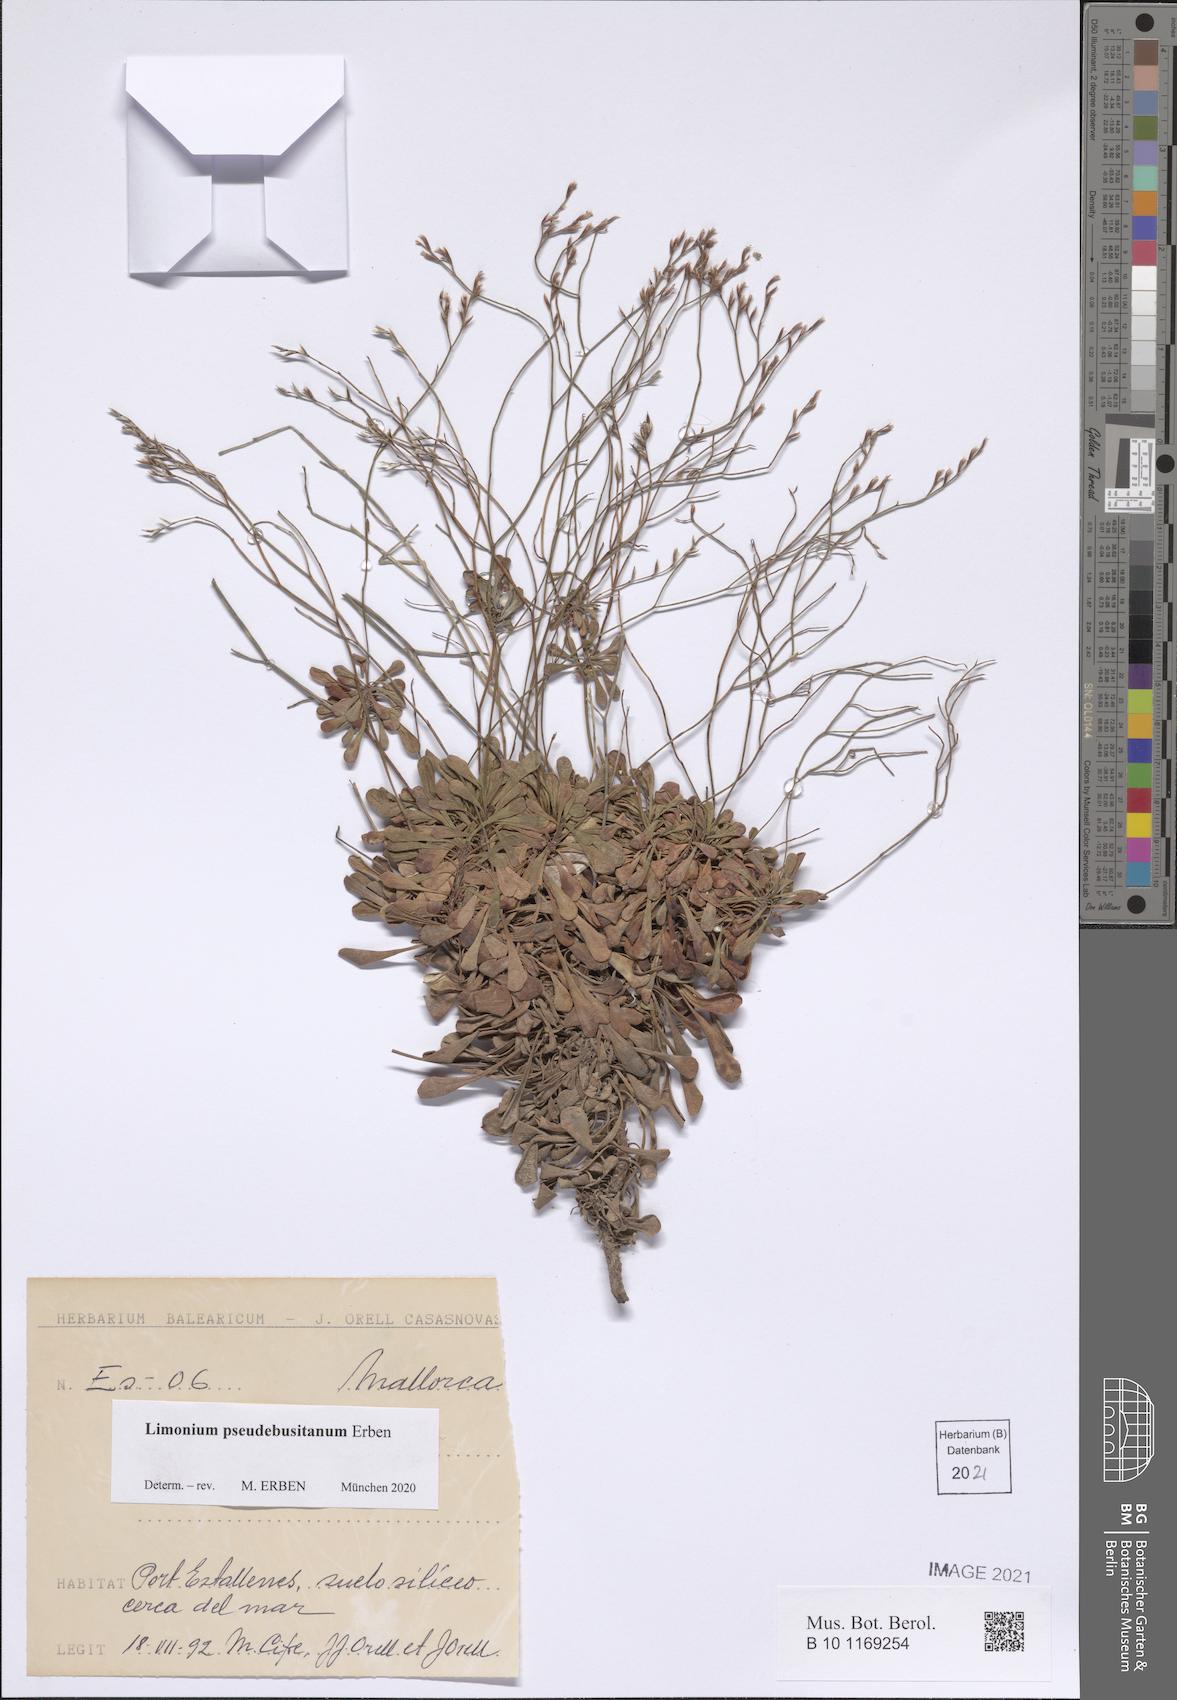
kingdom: Plantae
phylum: Tracheophyta
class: Magnoliopsida
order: Caryophyllales
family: Plumbaginaceae
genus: Limonium
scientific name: Limonium pseudebusitanum
